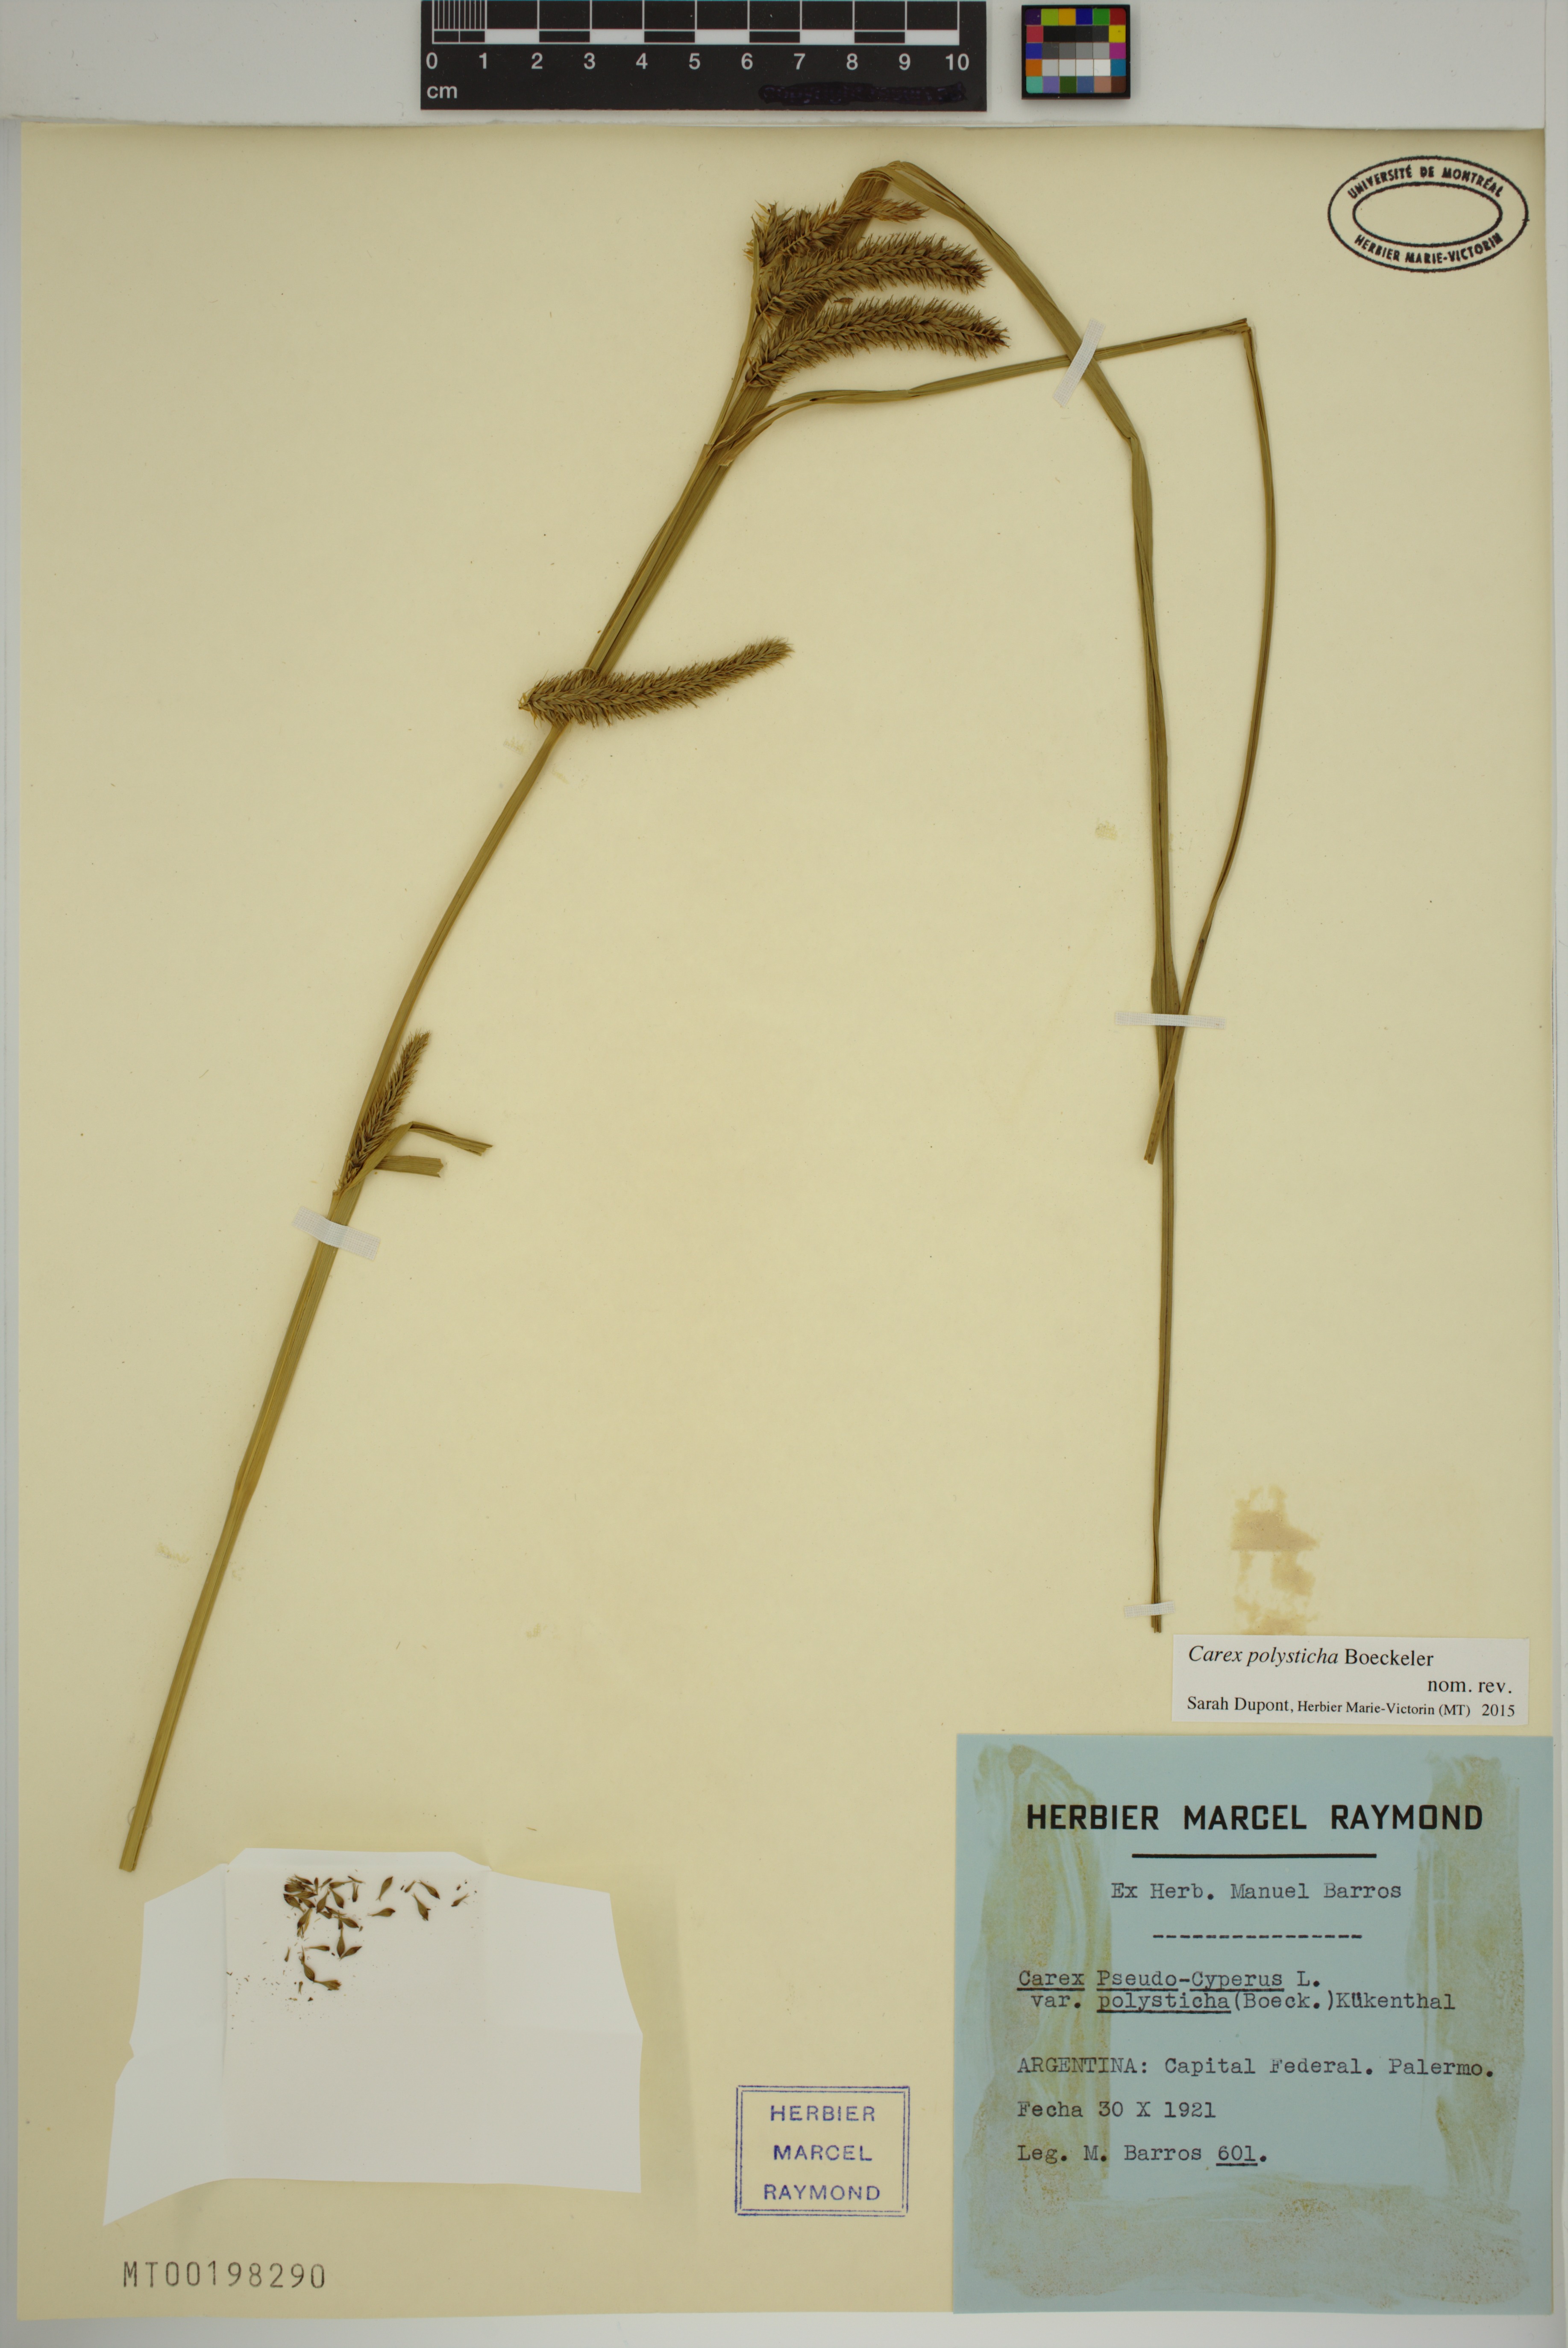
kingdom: Plantae
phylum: Tracheophyta
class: Liliopsida
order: Poales
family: Cyperaceae
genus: Carex
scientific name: Carex polysticha
